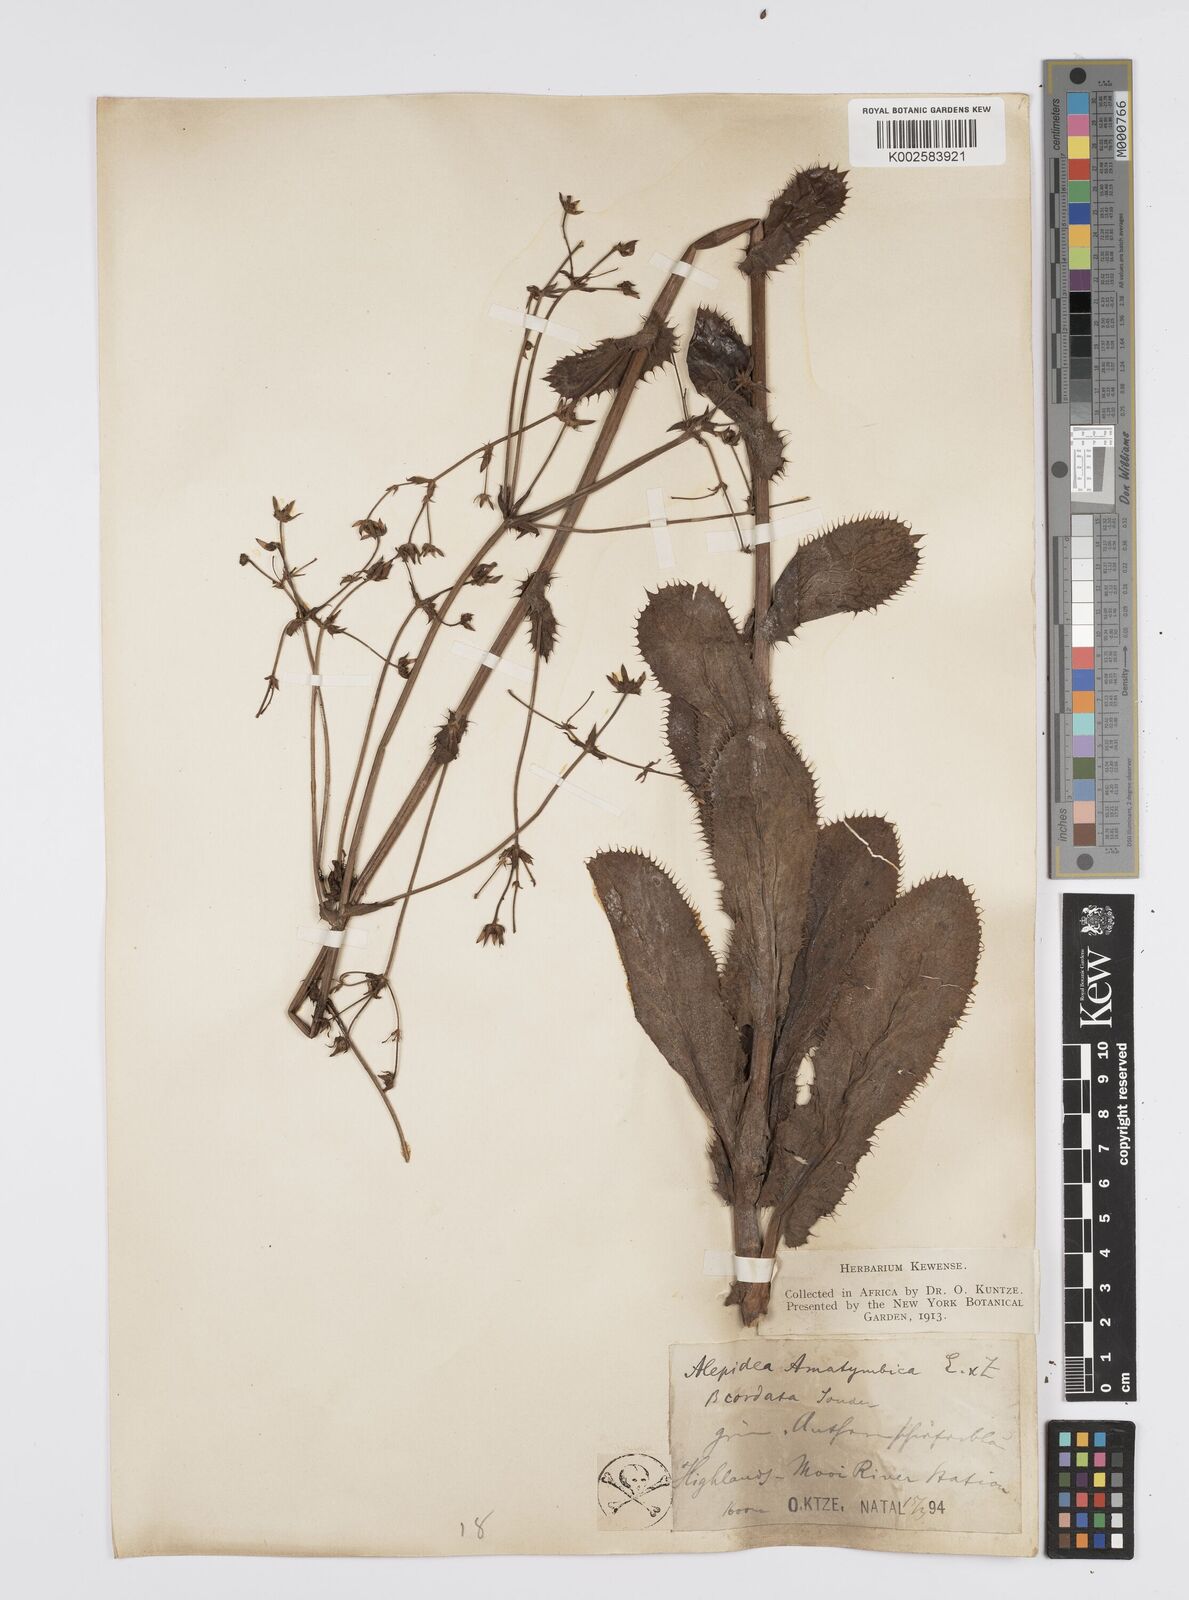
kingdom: Plantae
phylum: Tracheophyta
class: Magnoliopsida
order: Apiales
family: Apiaceae
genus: Alepidea
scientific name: Alepidea amatymbica
